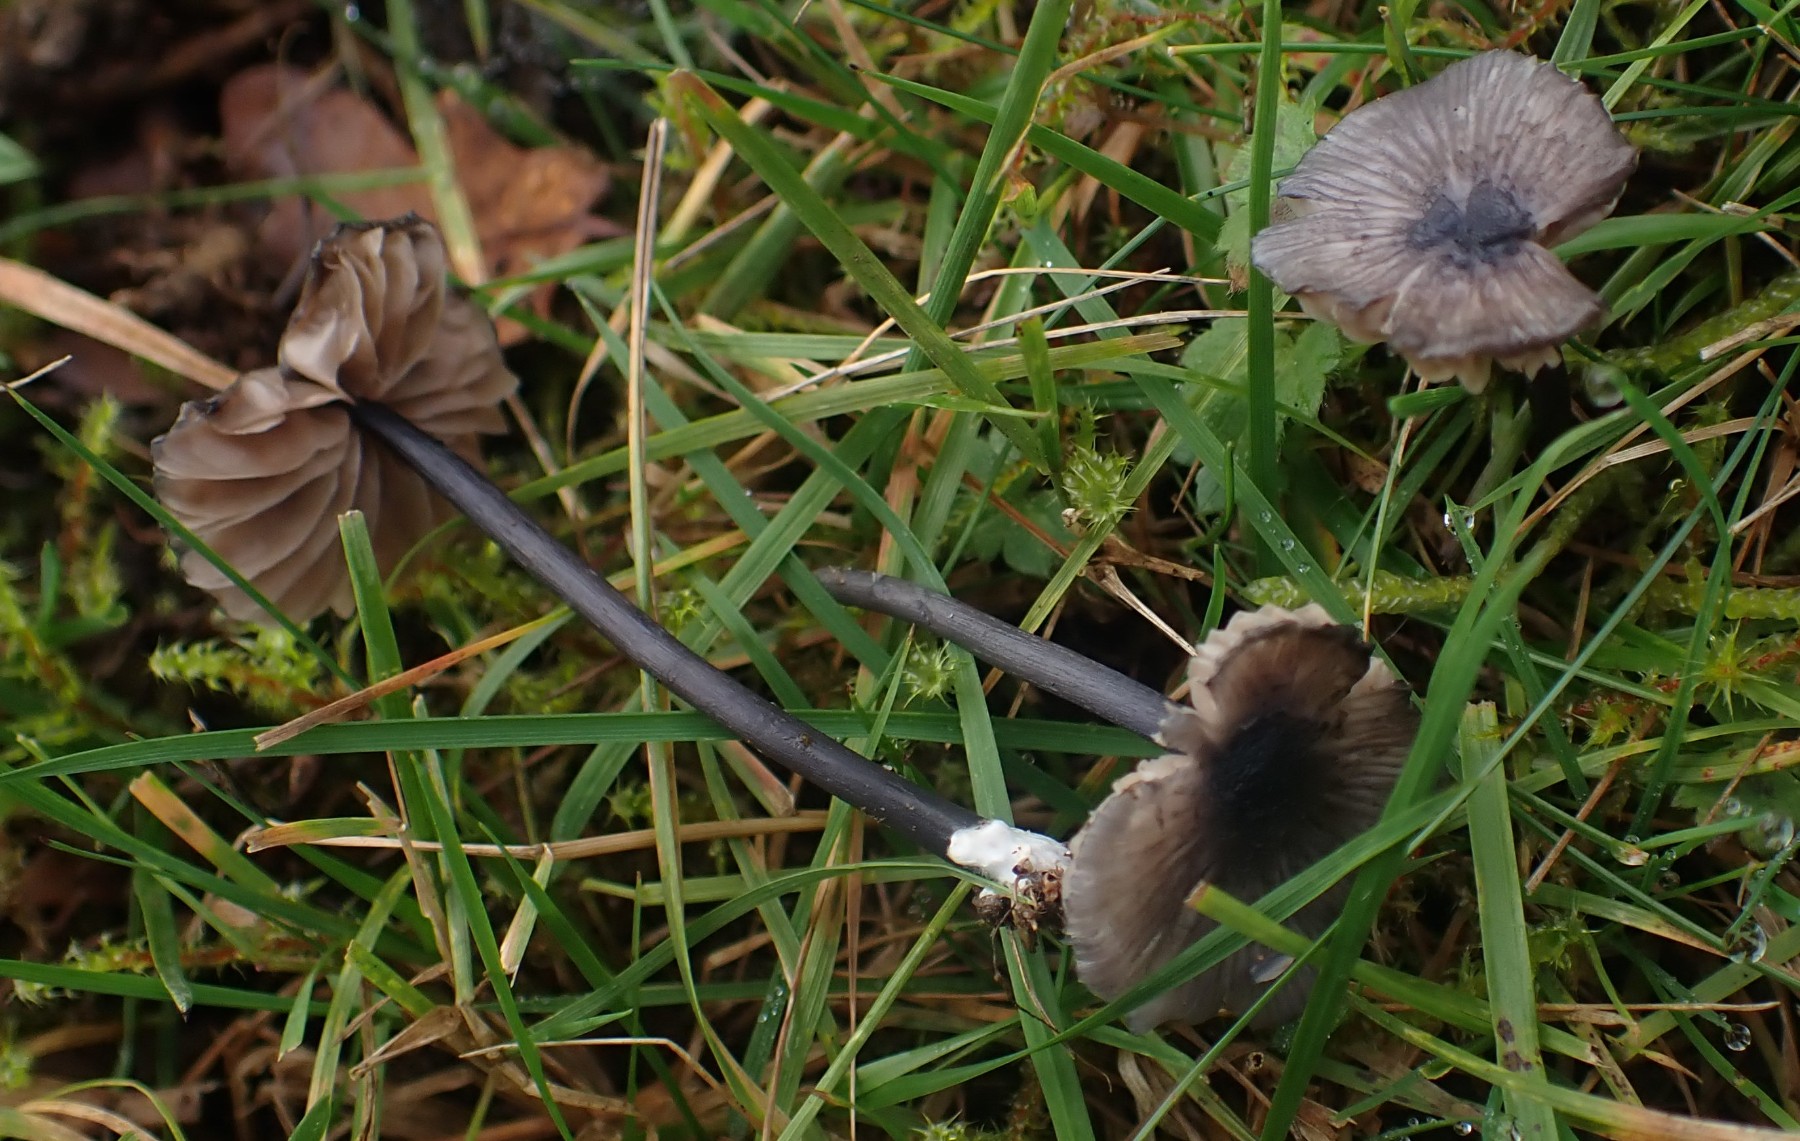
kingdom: Fungi
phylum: Basidiomycota
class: Agaricomycetes
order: Agaricales
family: Entolomataceae
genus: Entoloma
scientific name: Entoloma
